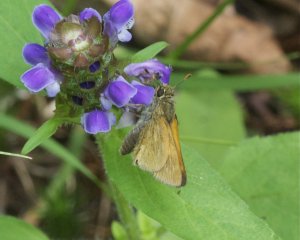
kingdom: Animalia
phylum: Arthropoda
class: Insecta
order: Lepidoptera
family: Hesperiidae
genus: Polites
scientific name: Polites
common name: Long Dash Skipper
